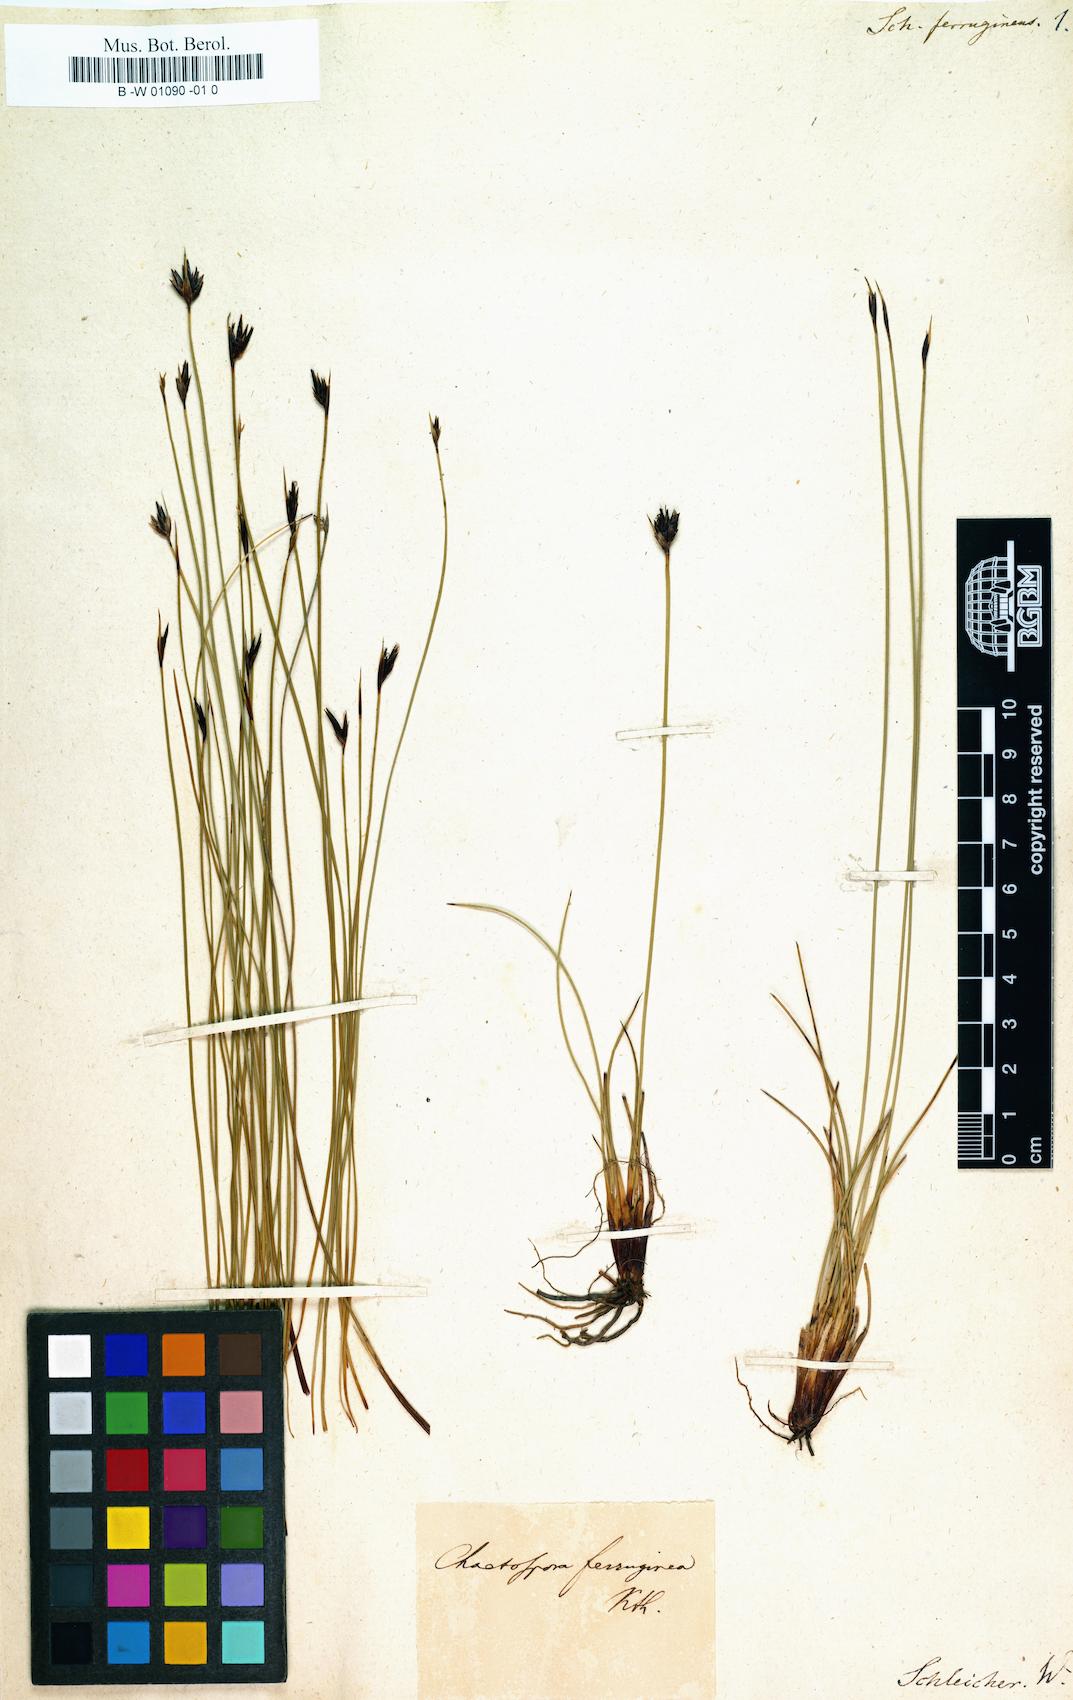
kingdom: Plantae
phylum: Tracheophyta
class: Liliopsida
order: Poales
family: Cyperaceae
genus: Schoenus
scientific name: Schoenus ferrugineus
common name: Brown bog-rush
